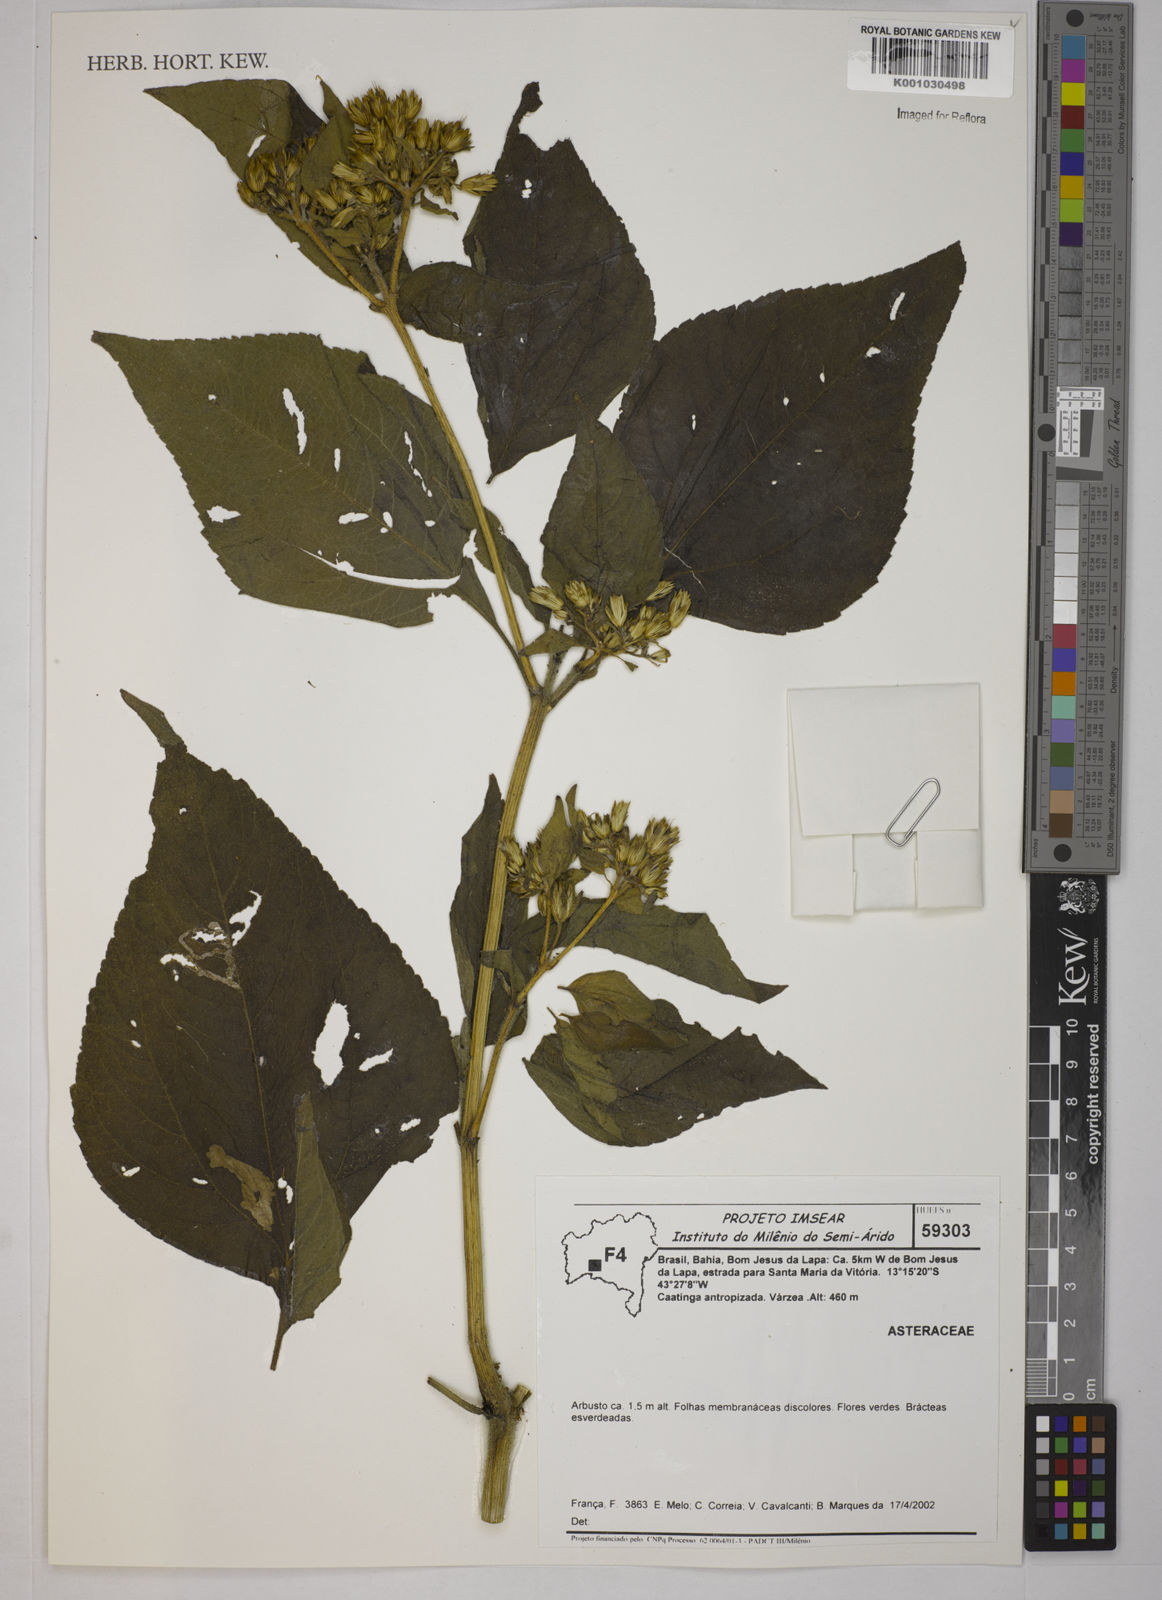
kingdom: Plantae
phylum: Tracheophyta
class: Magnoliopsida
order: Asterales
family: Asteraceae
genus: Blainvillea
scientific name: Blainvillea dichotoma
